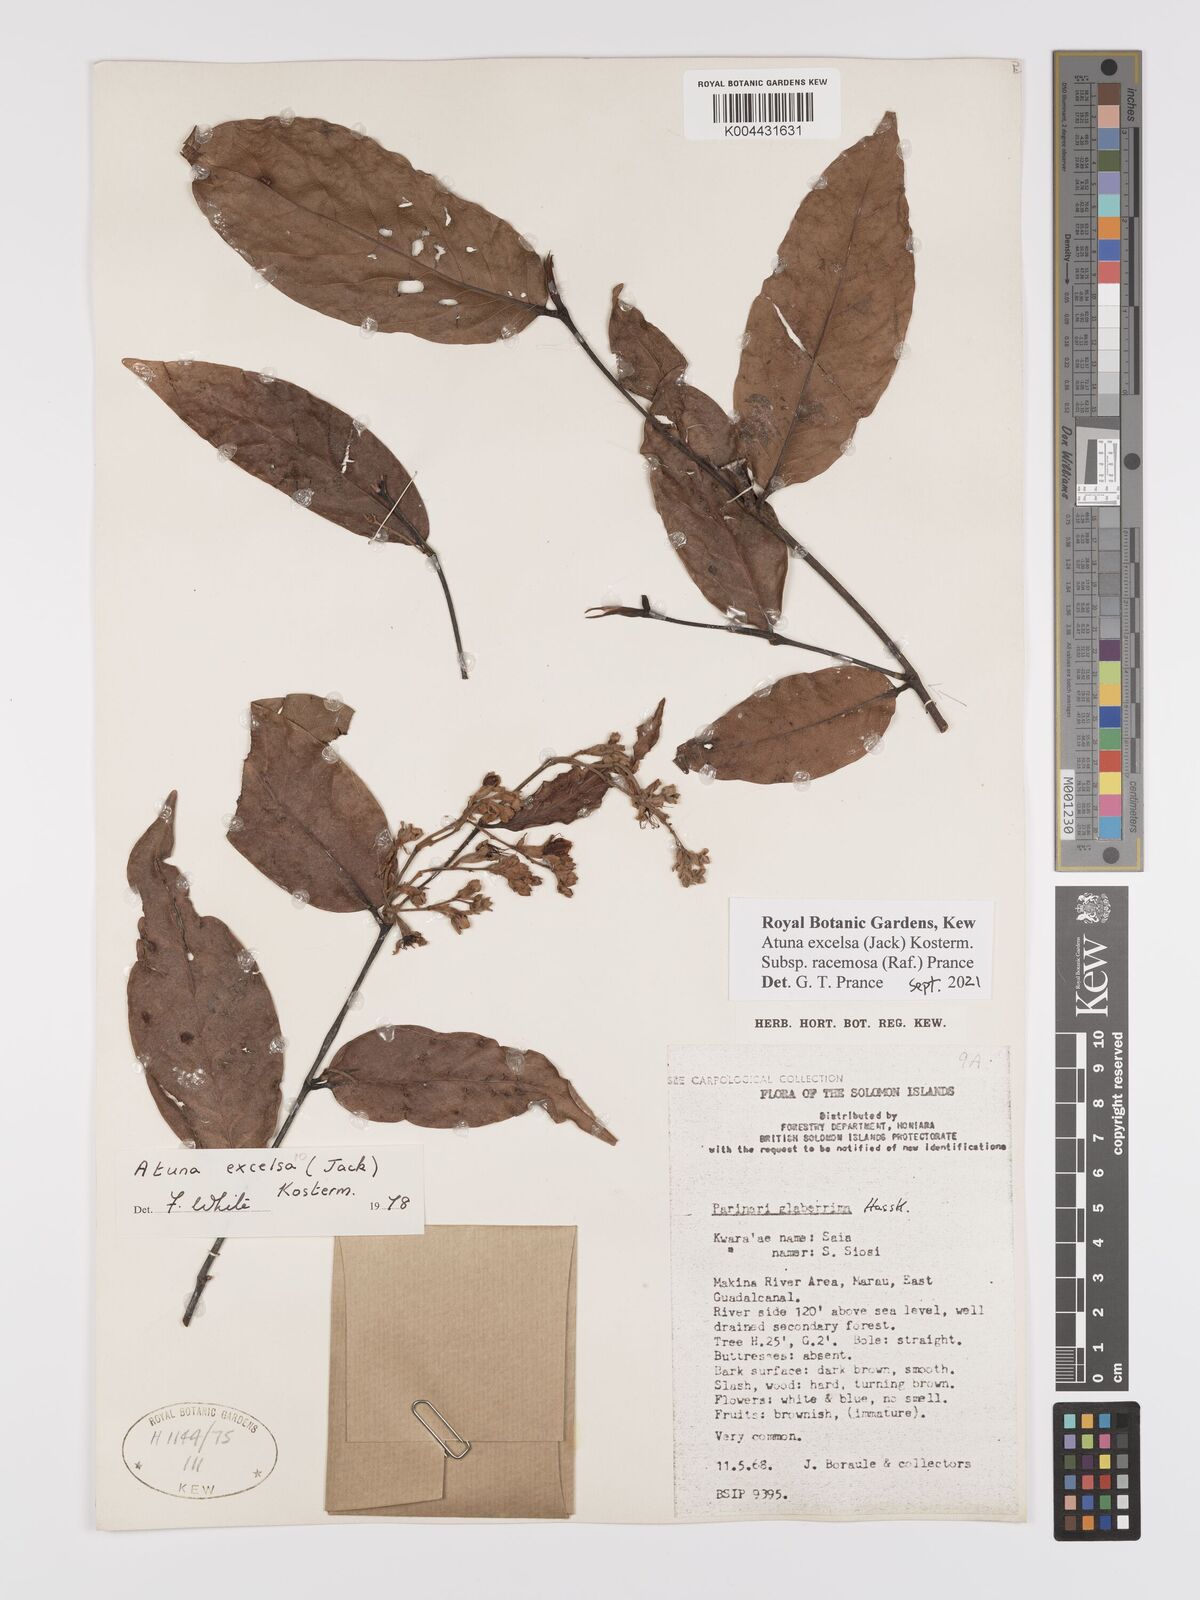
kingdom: Plantae
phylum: Tracheophyta
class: Magnoliopsida
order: Malpighiales
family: Chrysobalanaceae
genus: Atuna
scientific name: Atuna excelsa
